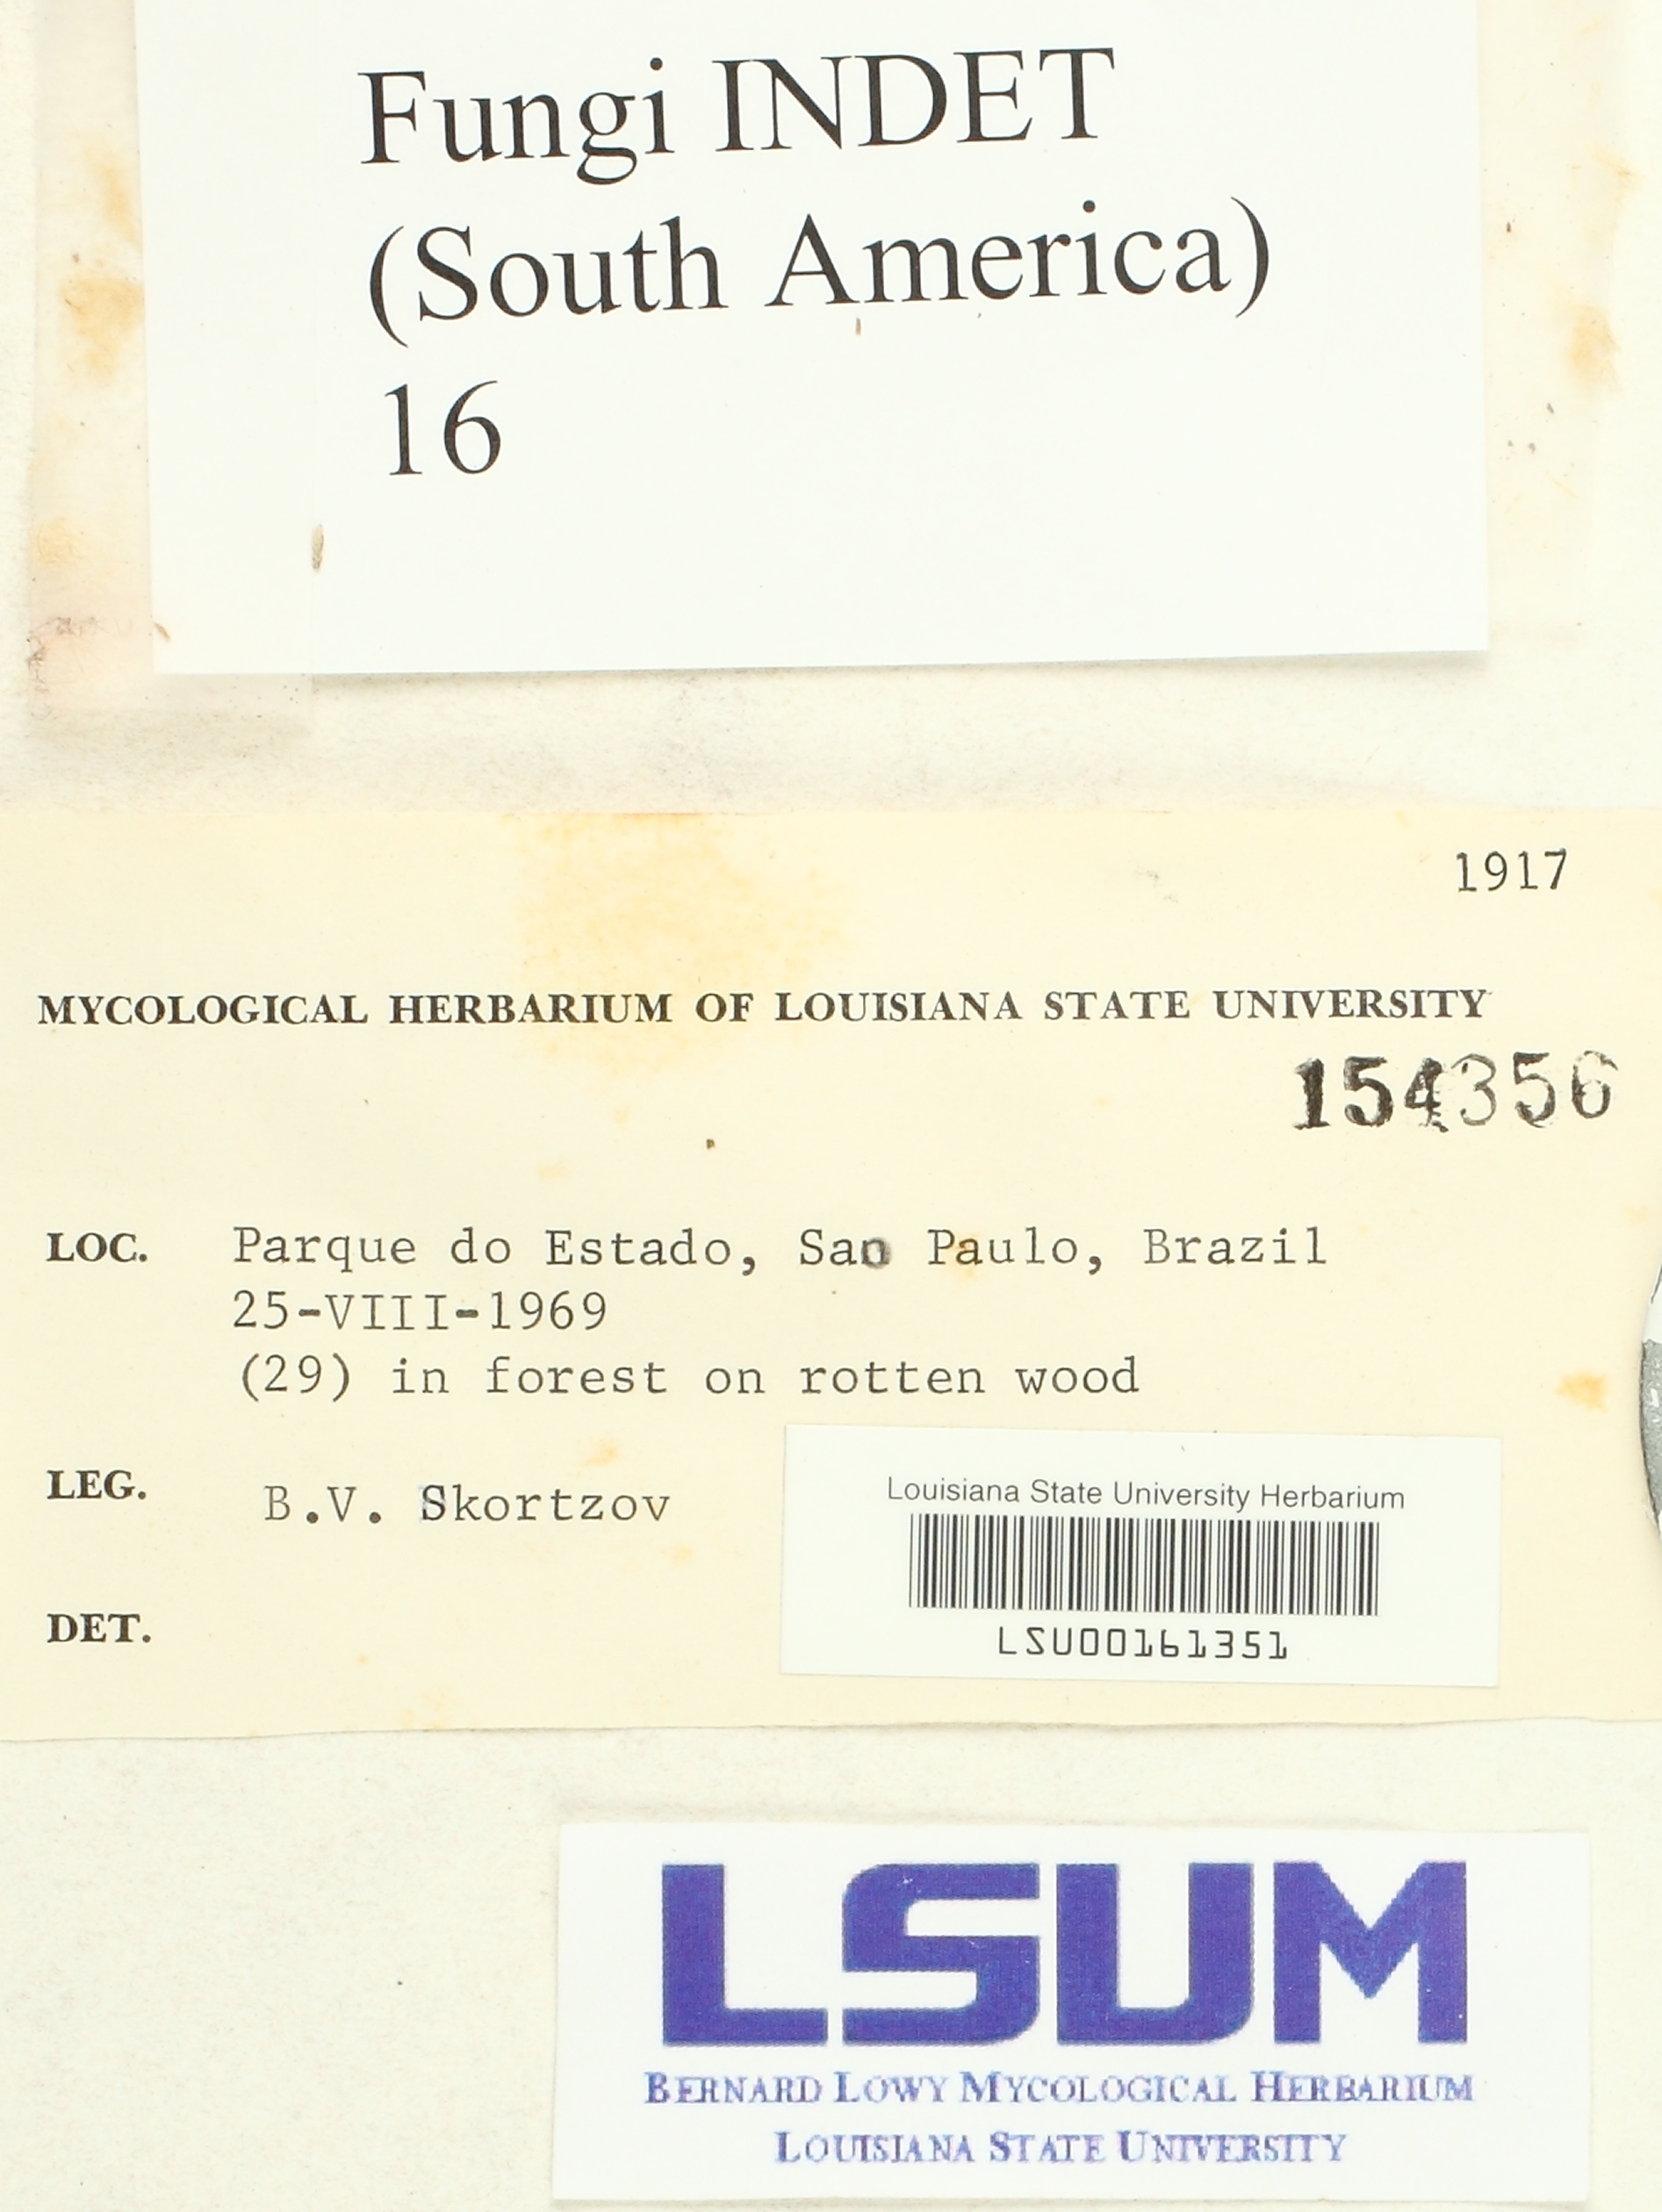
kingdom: Fungi
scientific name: Fungi
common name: Fungi
